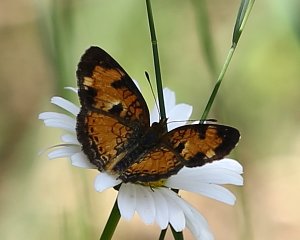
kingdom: Animalia
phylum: Arthropoda
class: Insecta
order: Lepidoptera
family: Nymphalidae
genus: Phyciodes
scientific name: Phyciodes tharos
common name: Pearl Crescent
